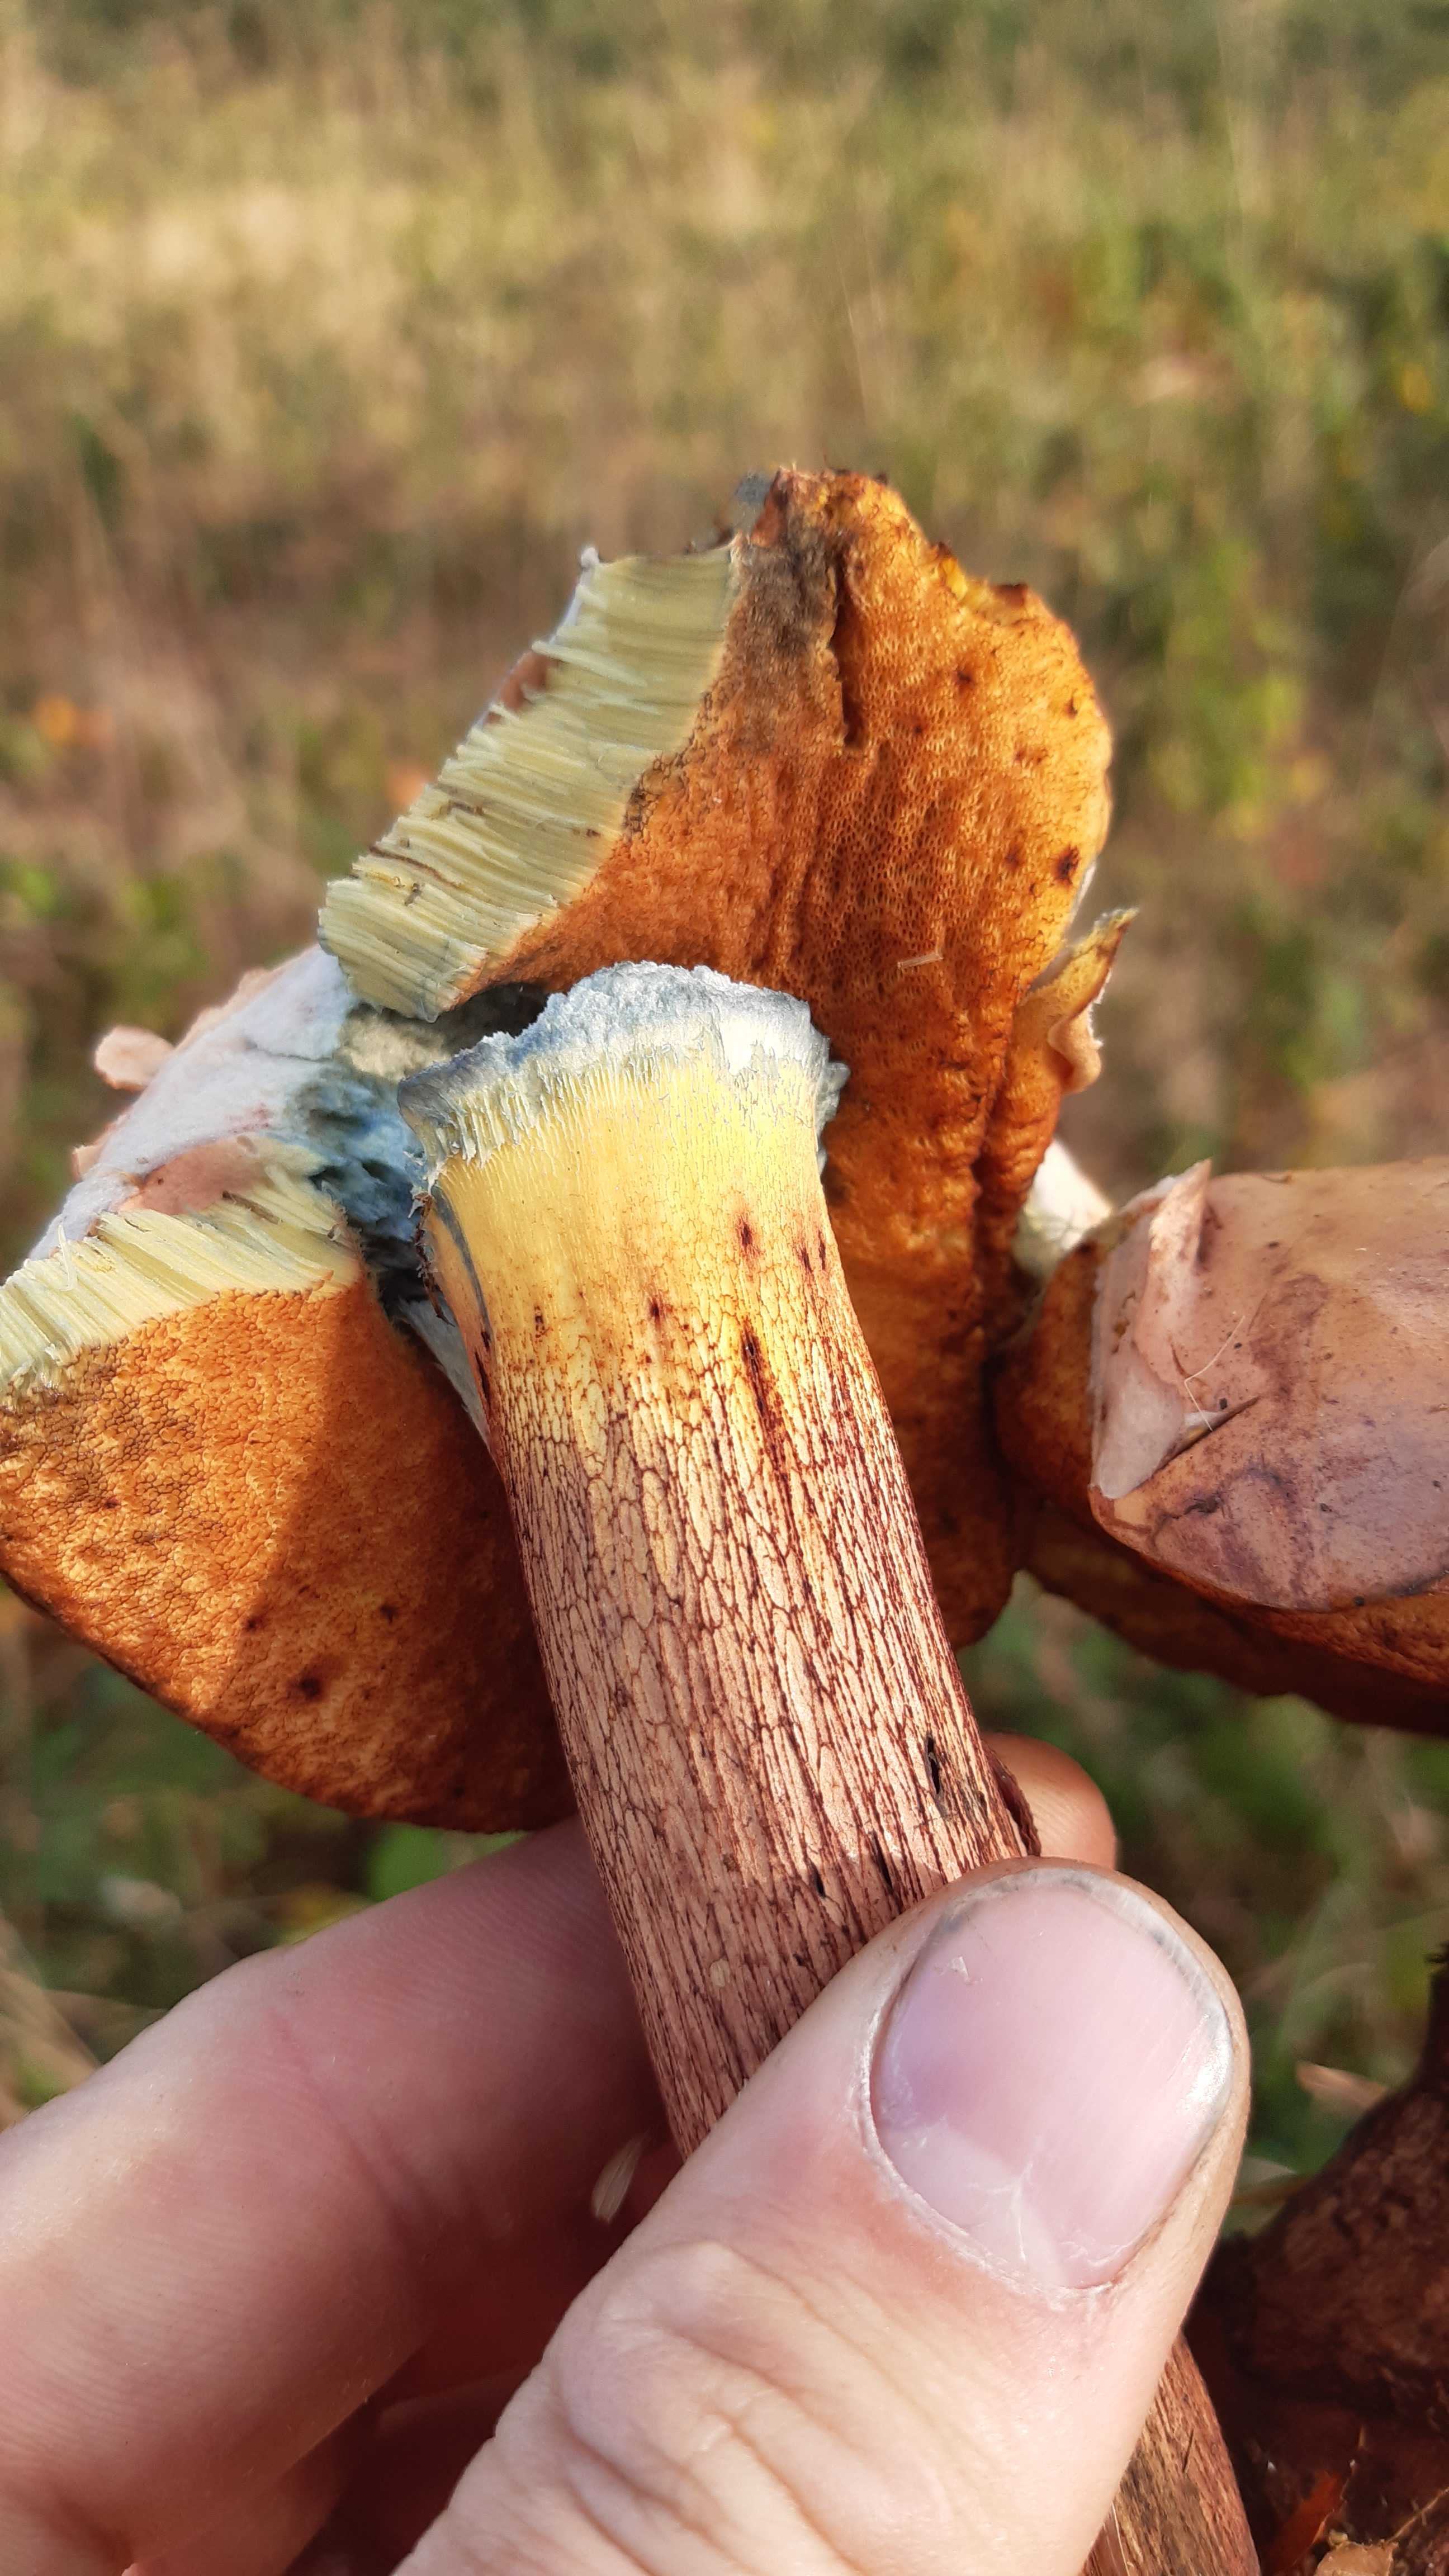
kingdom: Fungi
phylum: Basidiomycota
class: Agaricomycetes
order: Boletales
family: Boletaceae
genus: Suillellus
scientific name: Suillellus luridus
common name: netstokket indigorørhat
